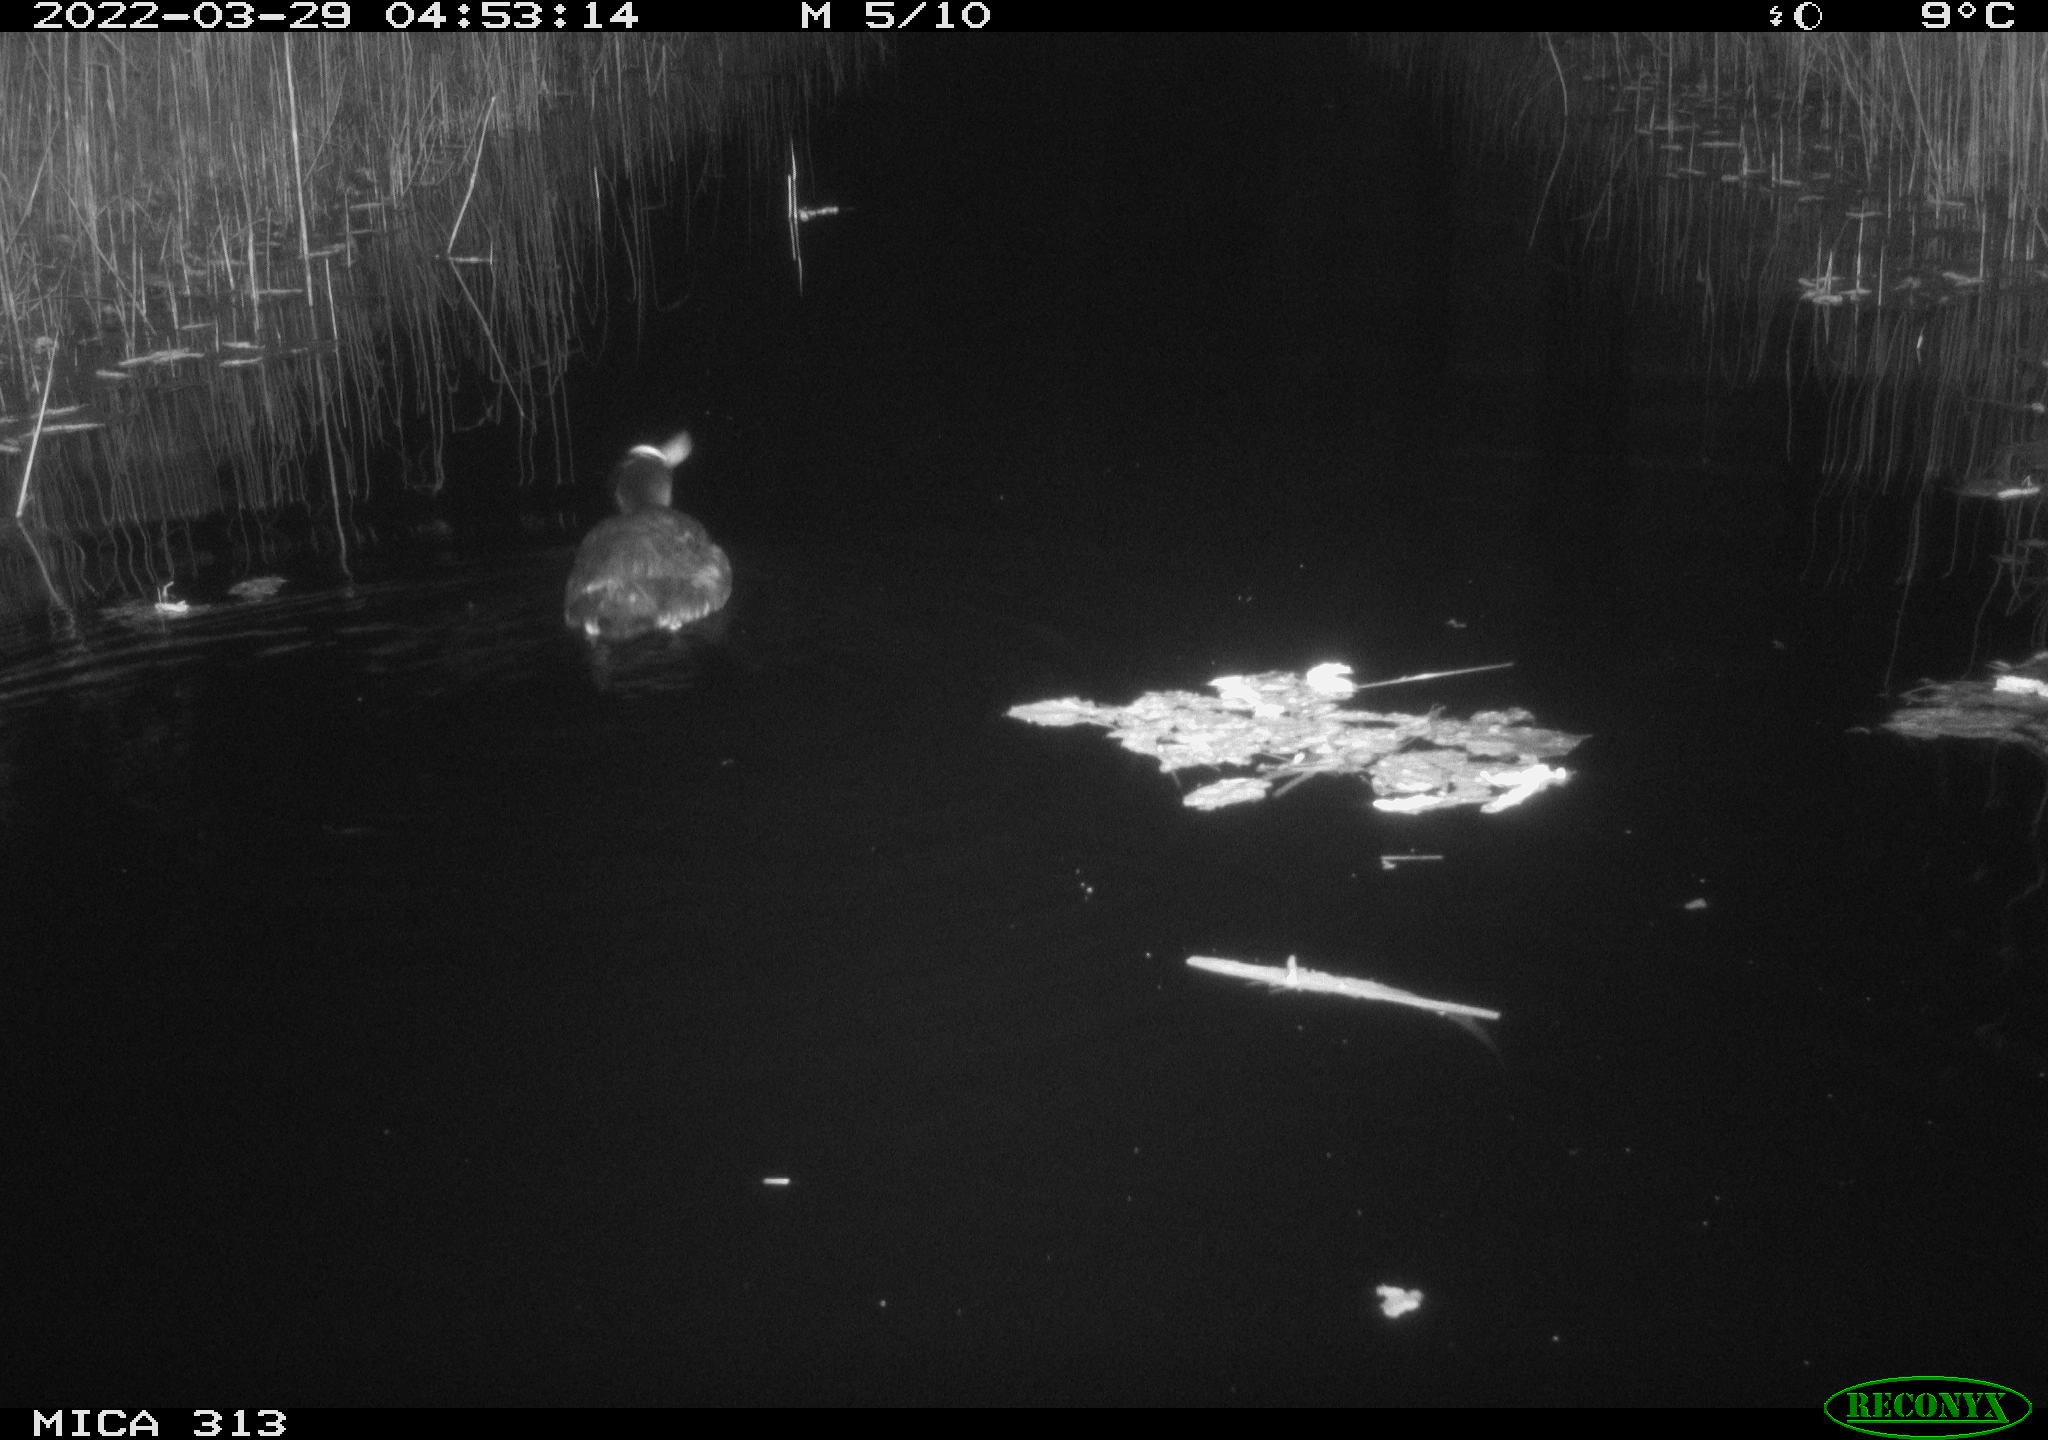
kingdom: Animalia
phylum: Chordata
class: Aves
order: Gruiformes
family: Rallidae
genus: Fulica
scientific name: Fulica atra
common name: Eurasian coot
